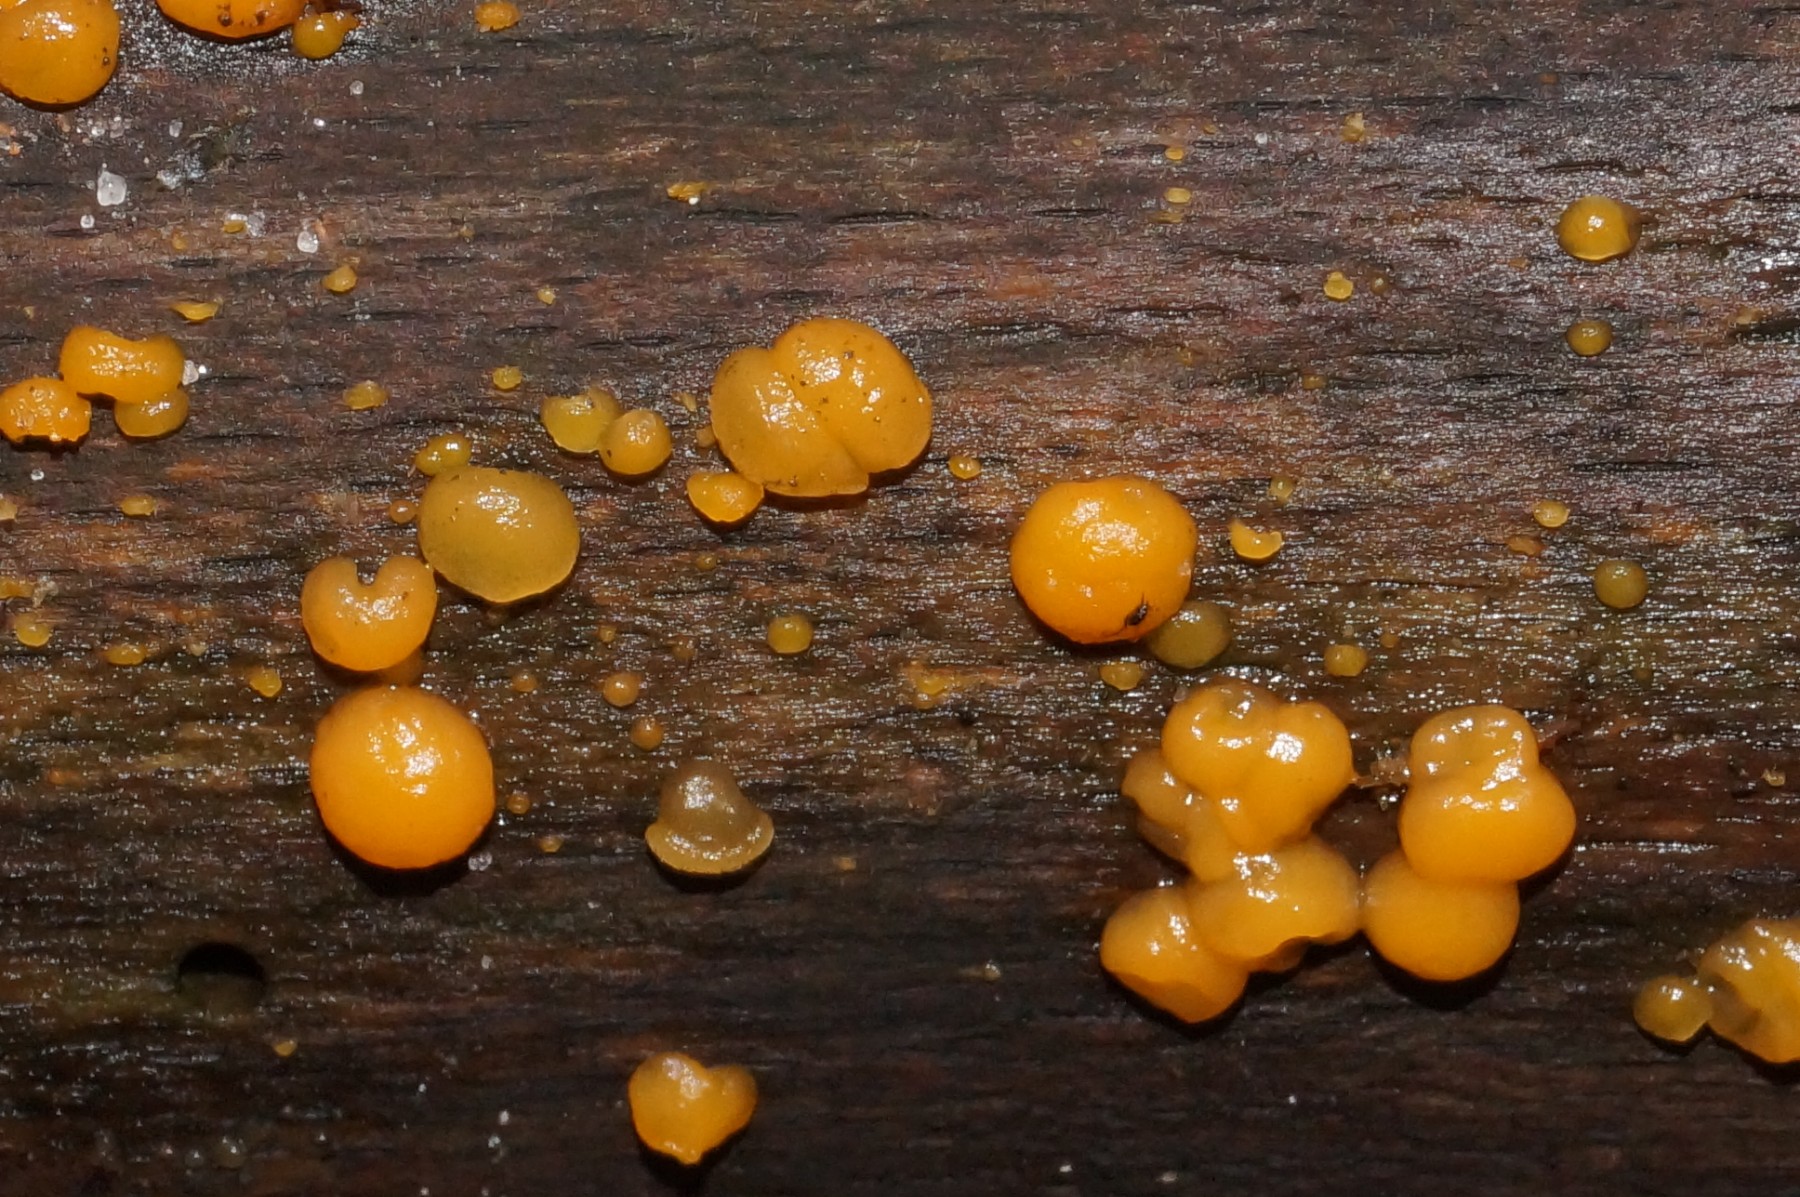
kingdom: Fungi
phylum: Basidiomycota
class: Dacrymycetes
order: Dacrymycetales
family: Dacrymycetaceae
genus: Dacrymyces
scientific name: Dacrymyces stillatus
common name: almindelig tåresvamp
